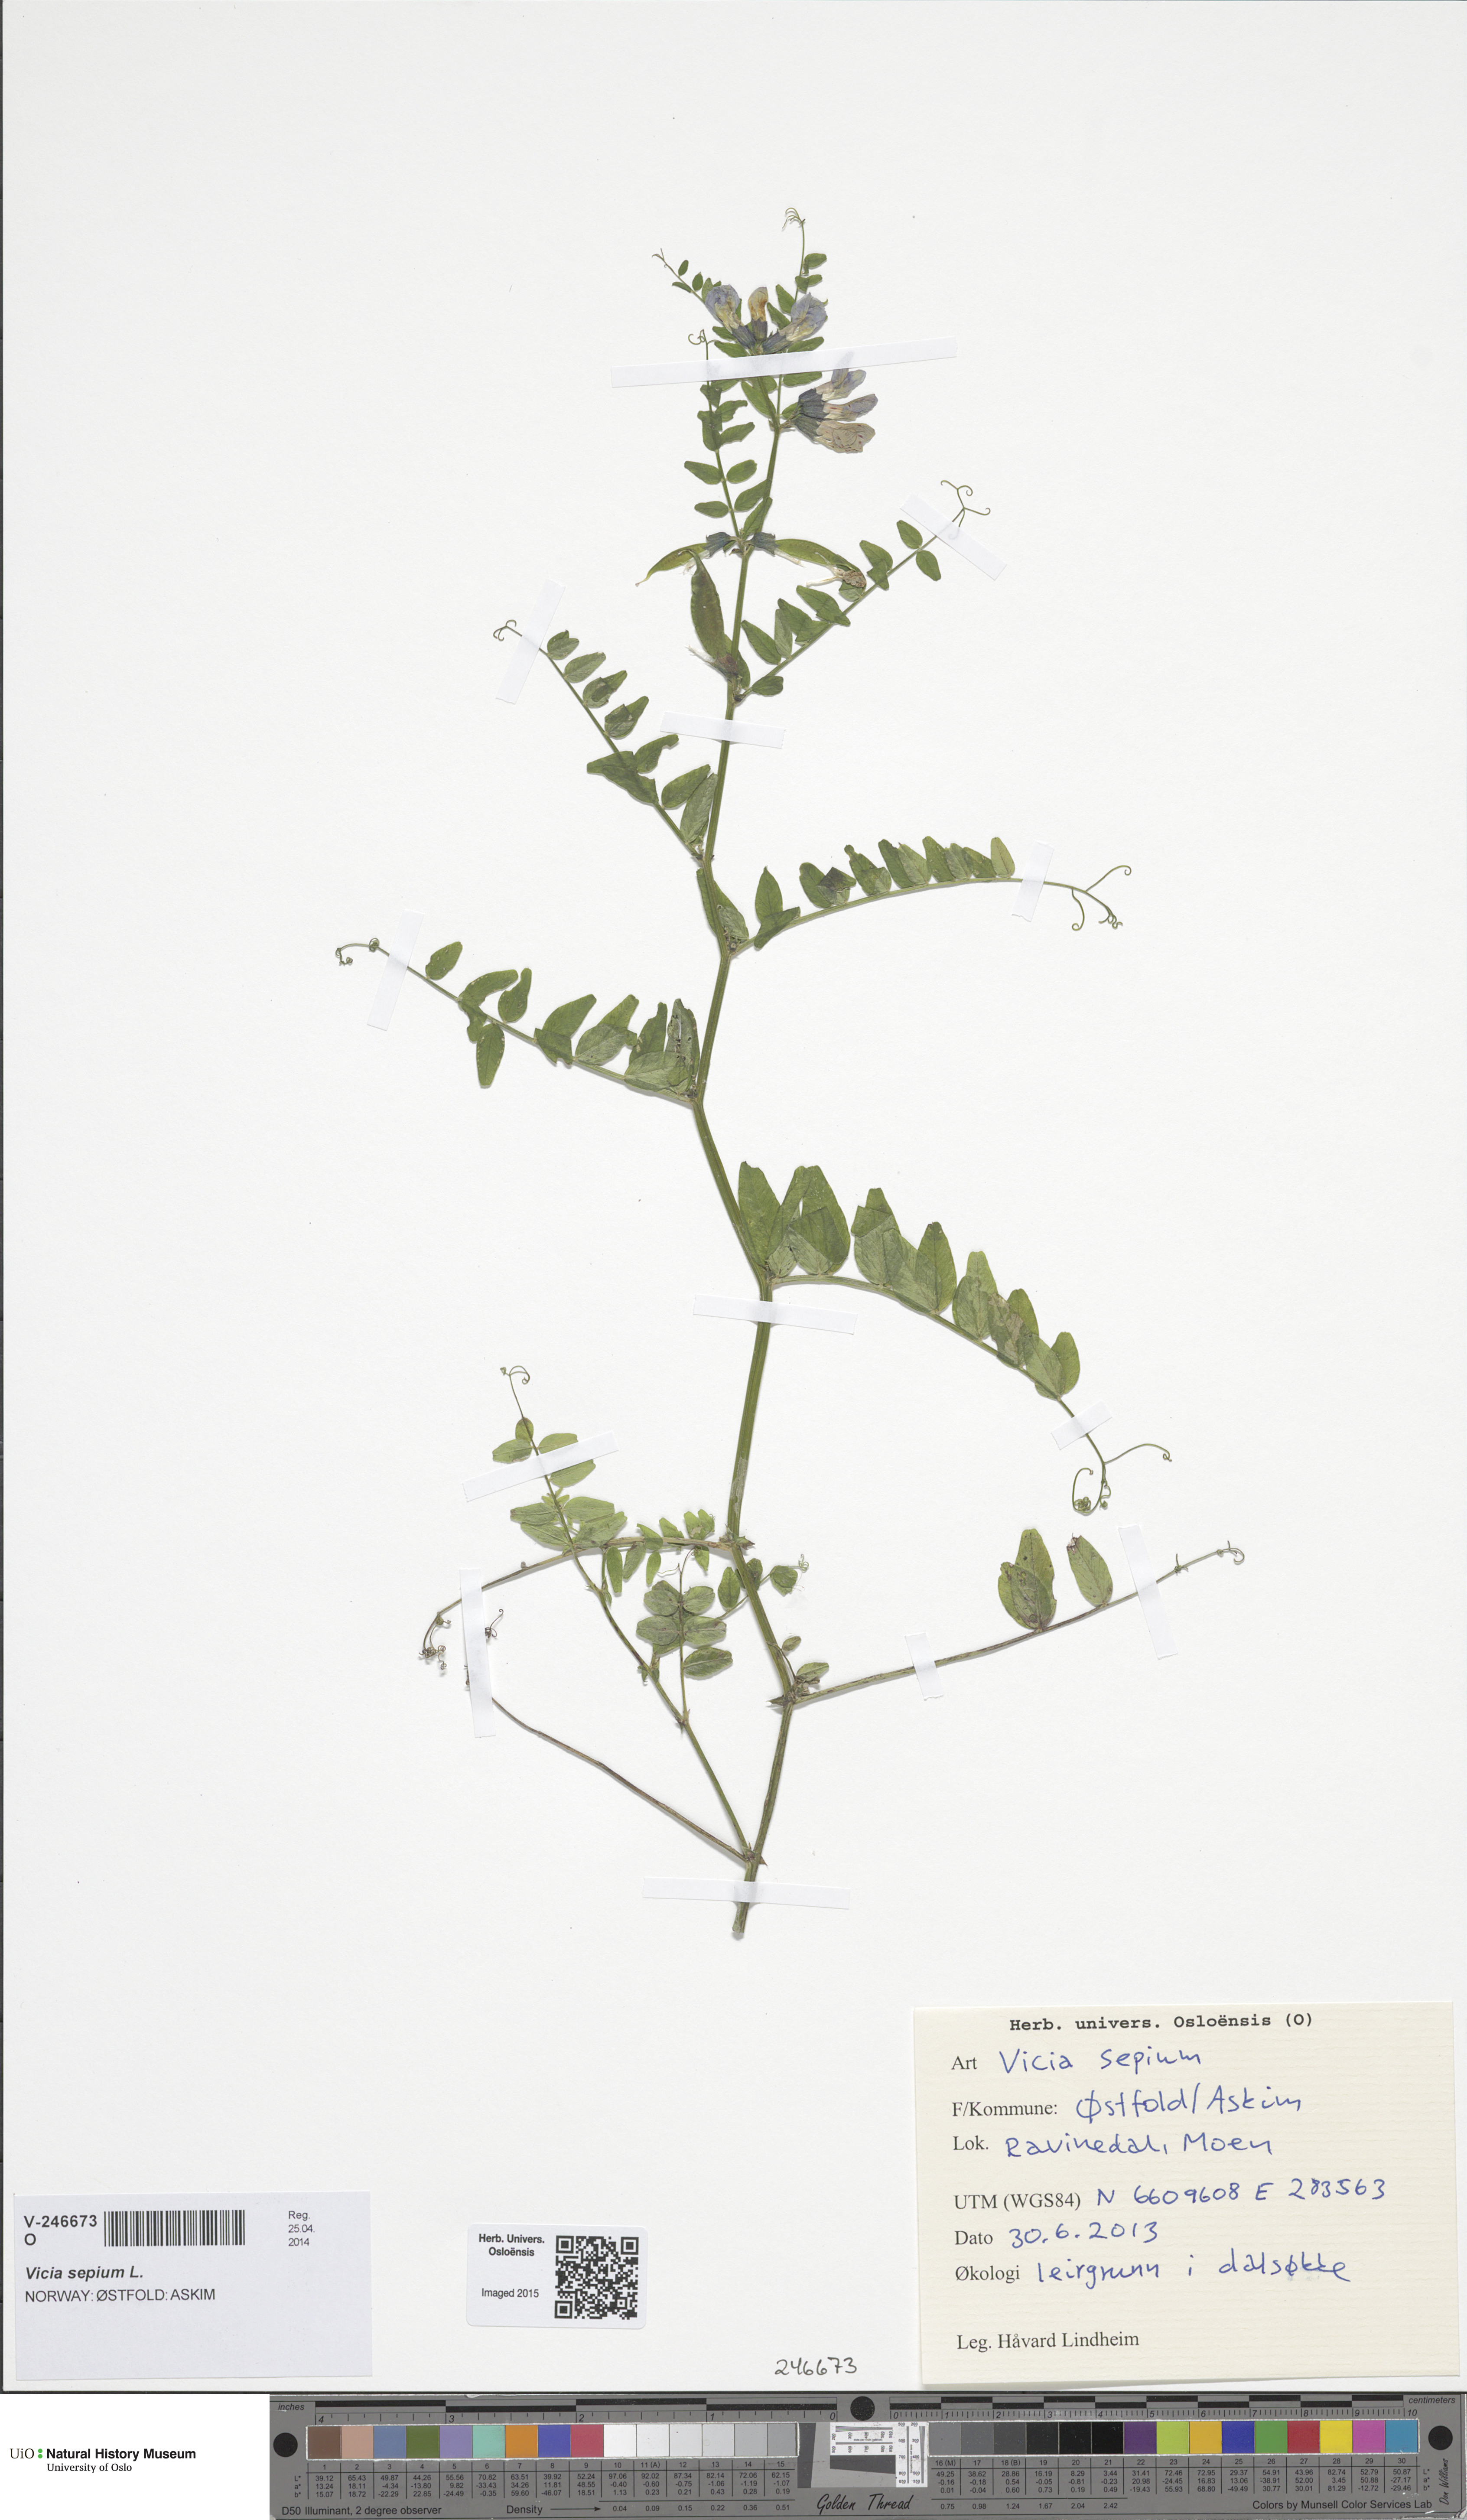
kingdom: Plantae
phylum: Tracheophyta
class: Magnoliopsida
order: Fabales
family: Fabaceae
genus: Vicia
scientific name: Vicia sepium
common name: Bush vetch
